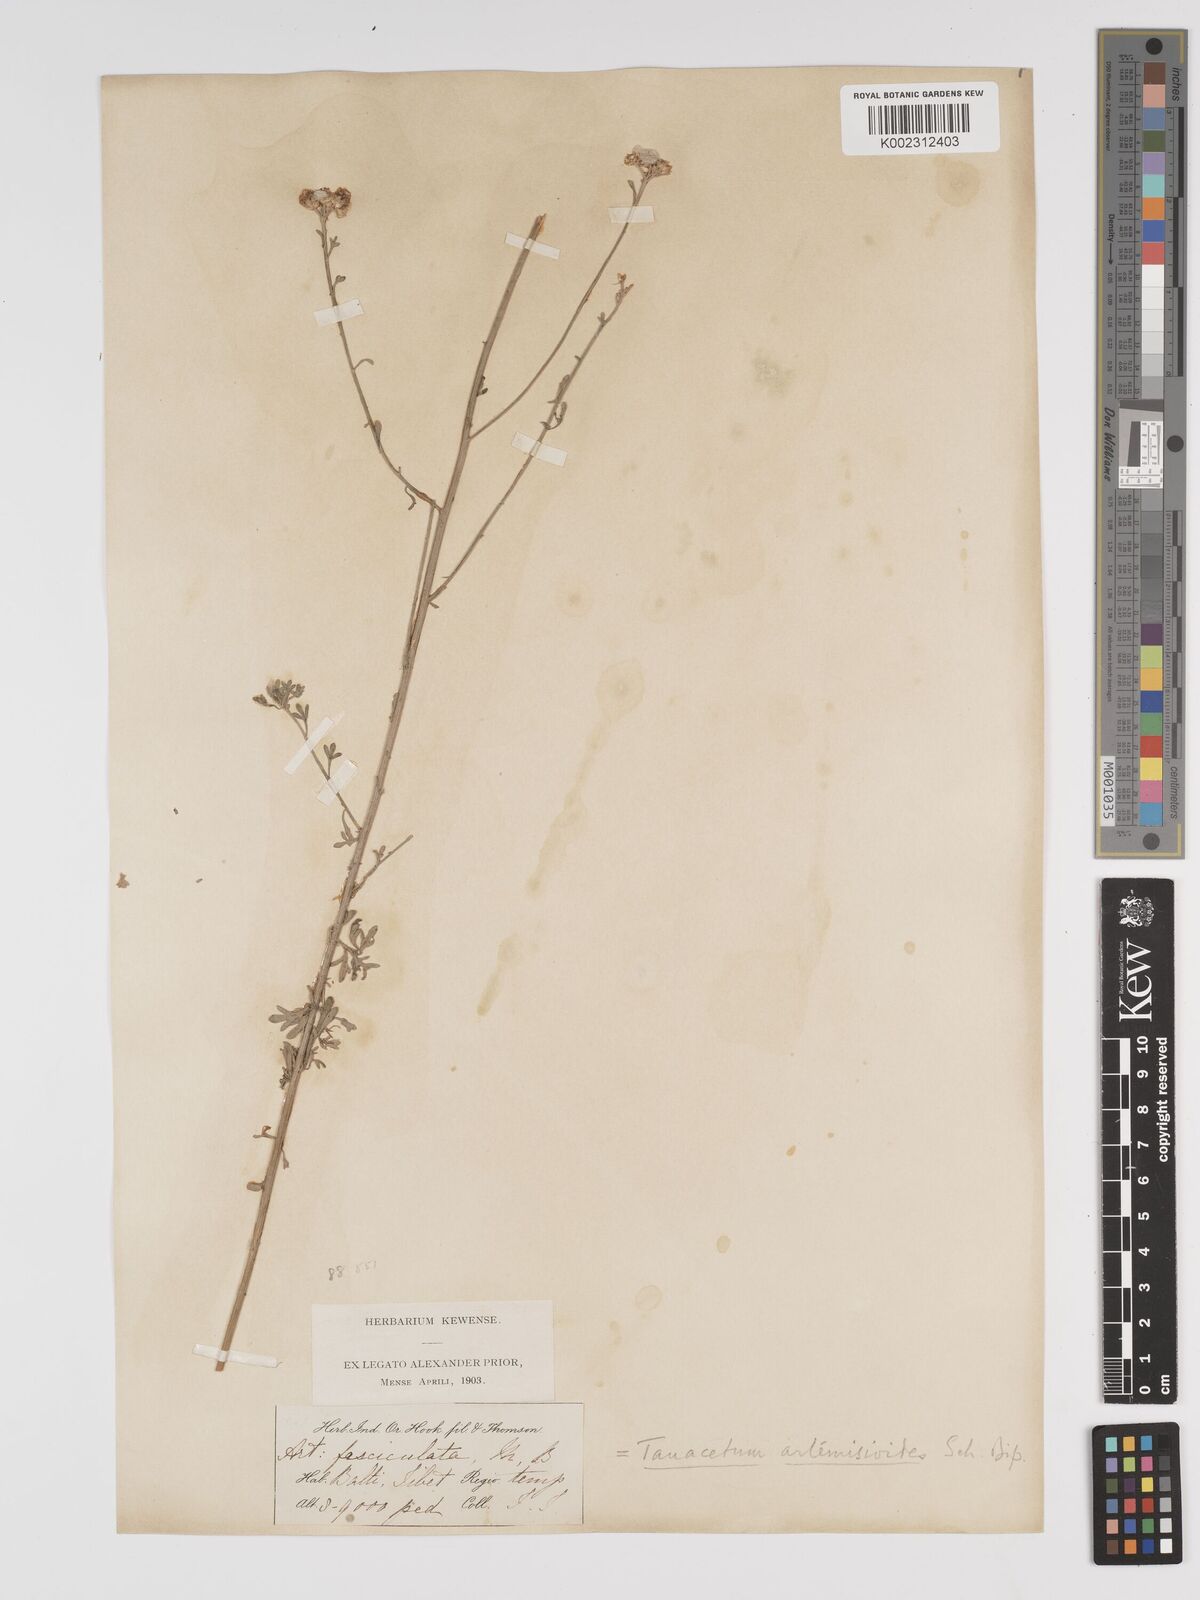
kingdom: Plantae
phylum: Tracheophyta
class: Magnoliopsida
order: Asterales
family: Asteraceae
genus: Tanacetum
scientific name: Tanacetum artemisioides
